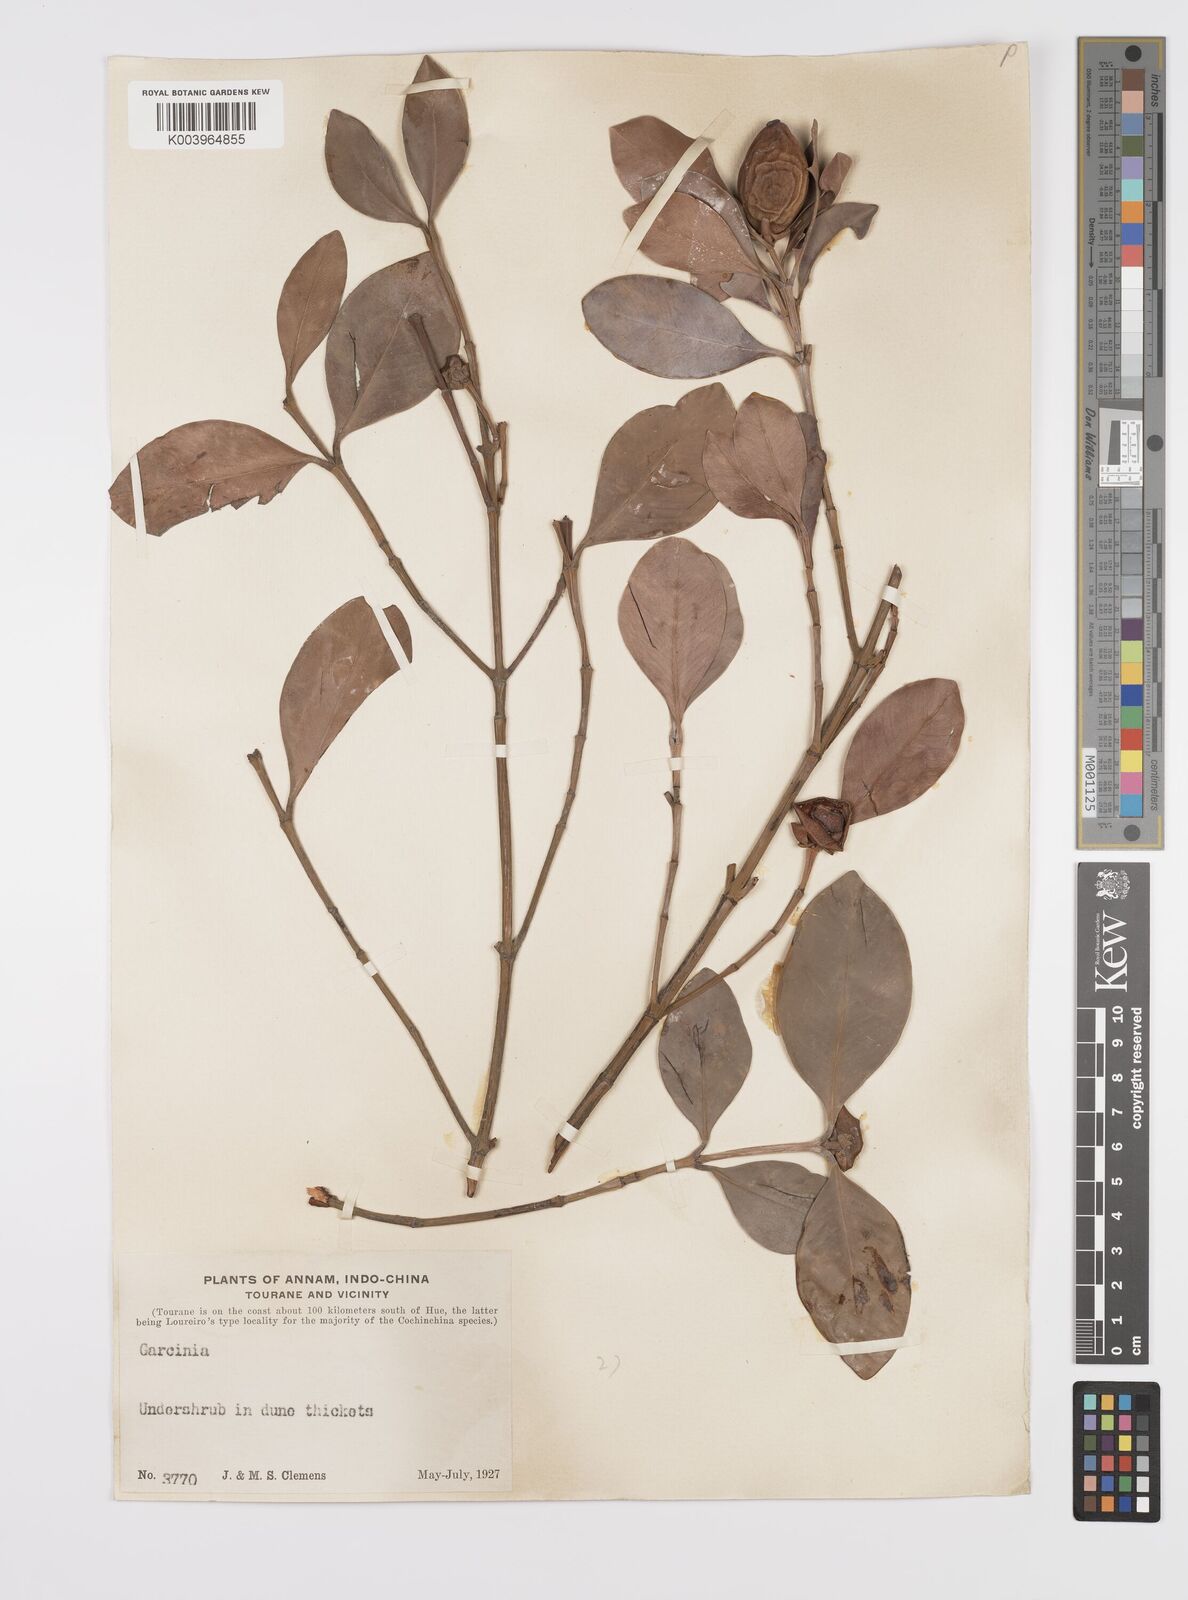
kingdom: Plantae
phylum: Tracheophyta
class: Magnoliopsida
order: Malpighiales
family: Clusiaceae
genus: Garcinia
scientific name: Garcinia
